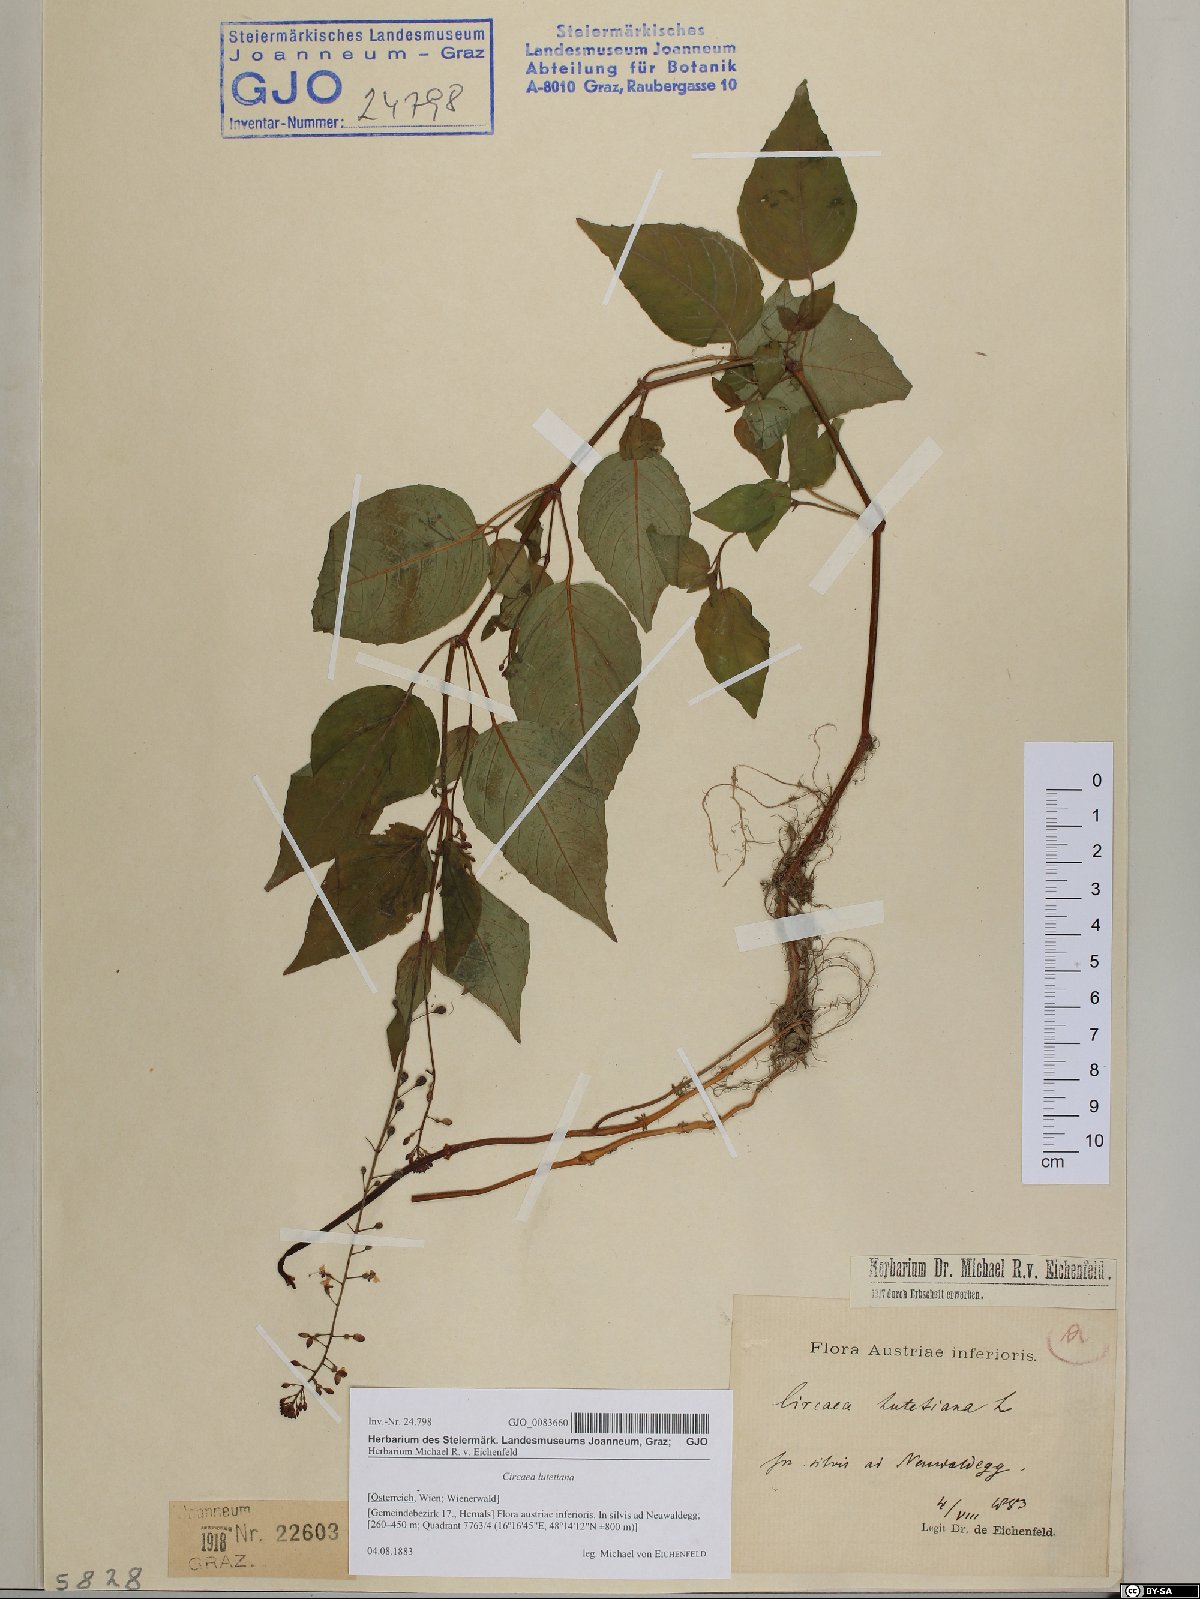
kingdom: Plantae
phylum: Tracheophyta
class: Magnoliopsida
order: Myrtales
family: Onagraceae
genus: Circaea
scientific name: Circaea lutetiana
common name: Enchanter's-nightshade
